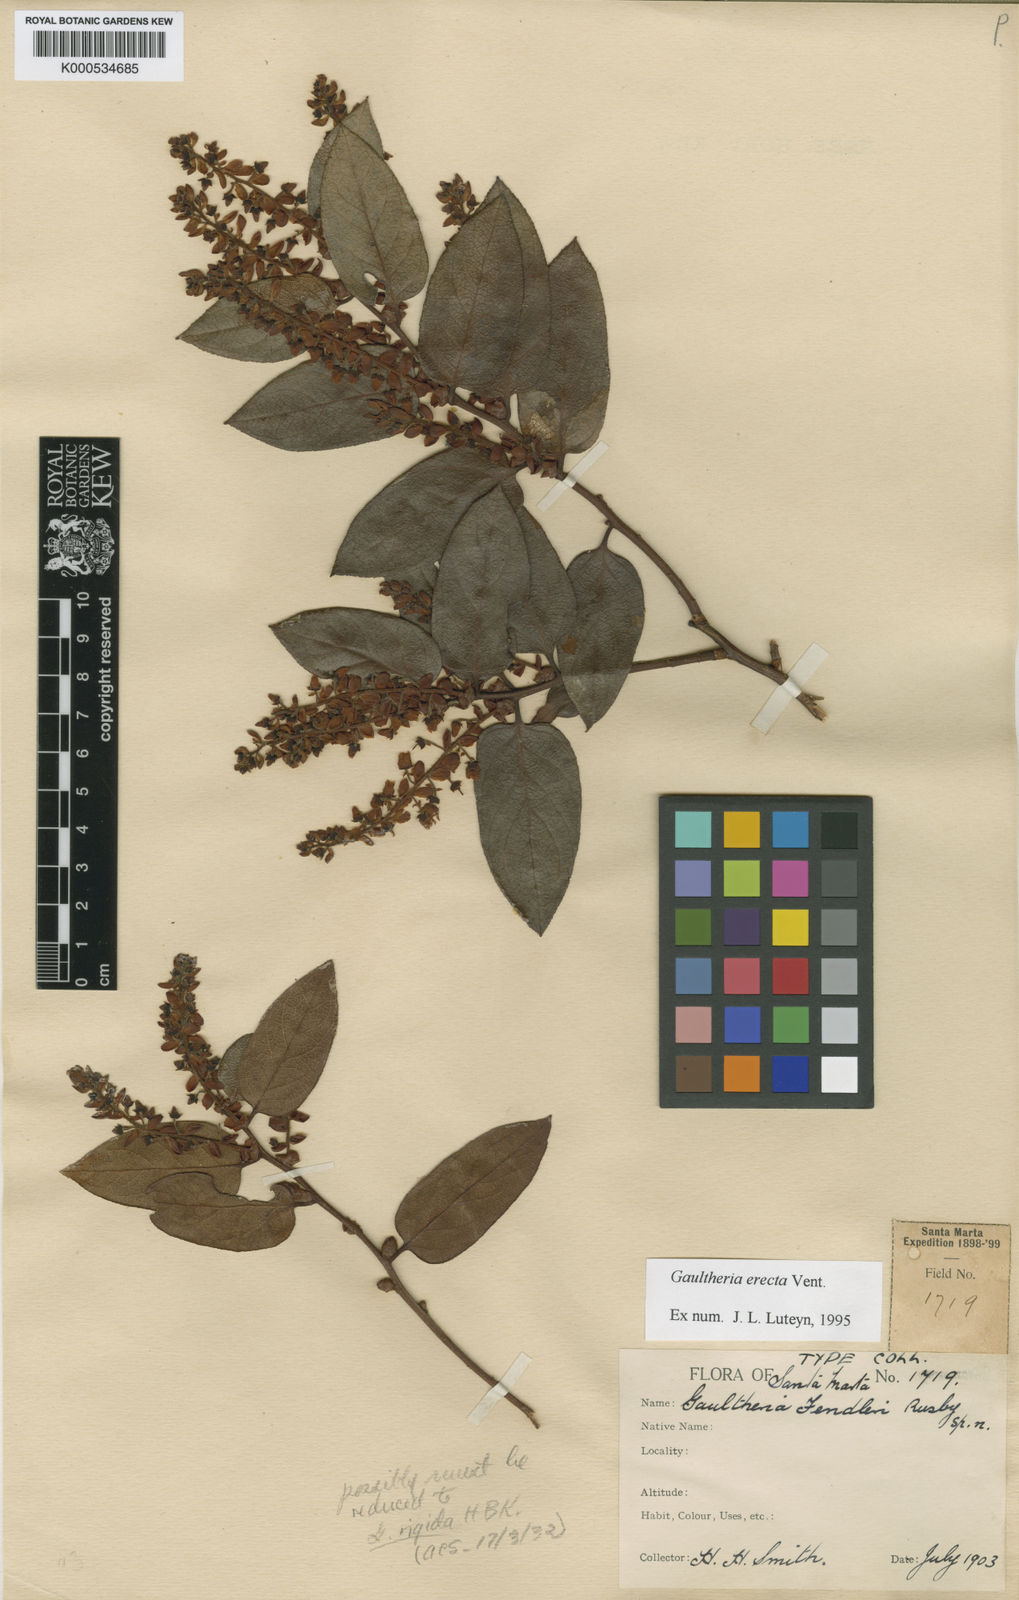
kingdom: Plantae
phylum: Tracheophyta
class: Magnoliopsida
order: Ericales
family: Ericaceae
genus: Gaultheria
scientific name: Gaultheria erecta
